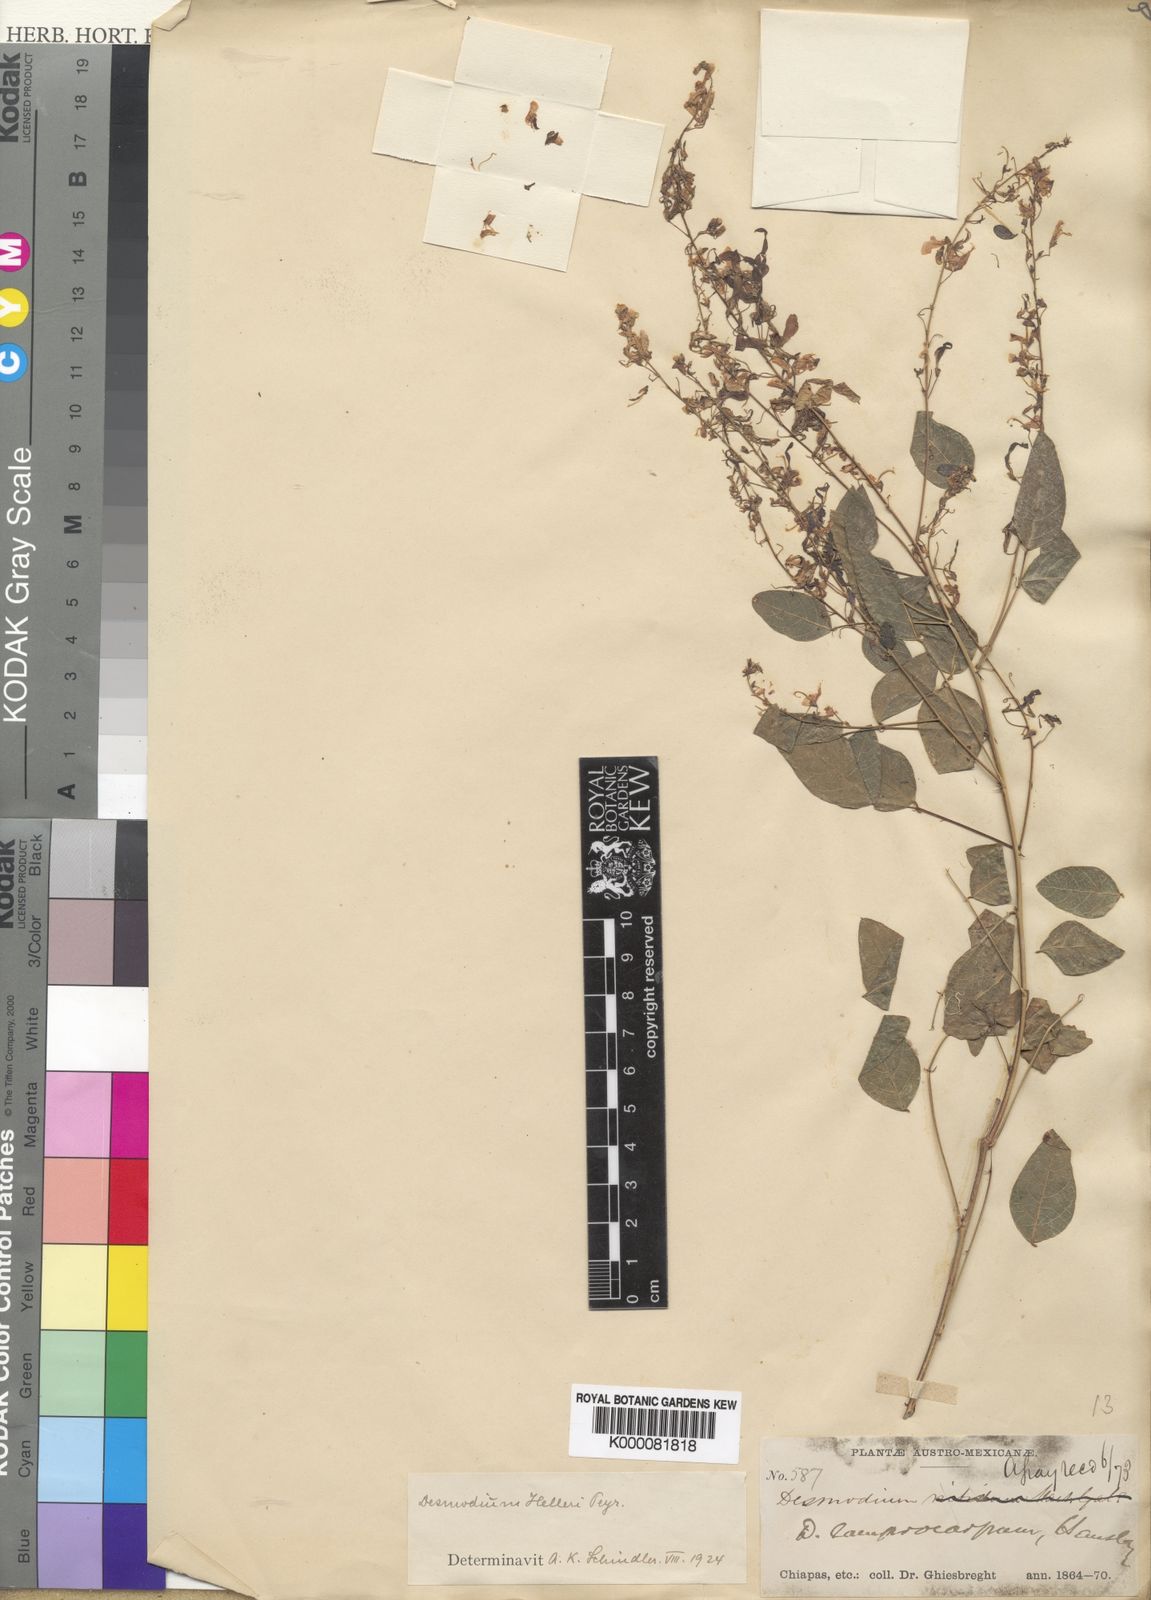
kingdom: Plantae
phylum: Tracheophyta
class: Magnoliopsida
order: Fabales
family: Fabaceae
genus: Desmodium
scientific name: Desmodium helleri
